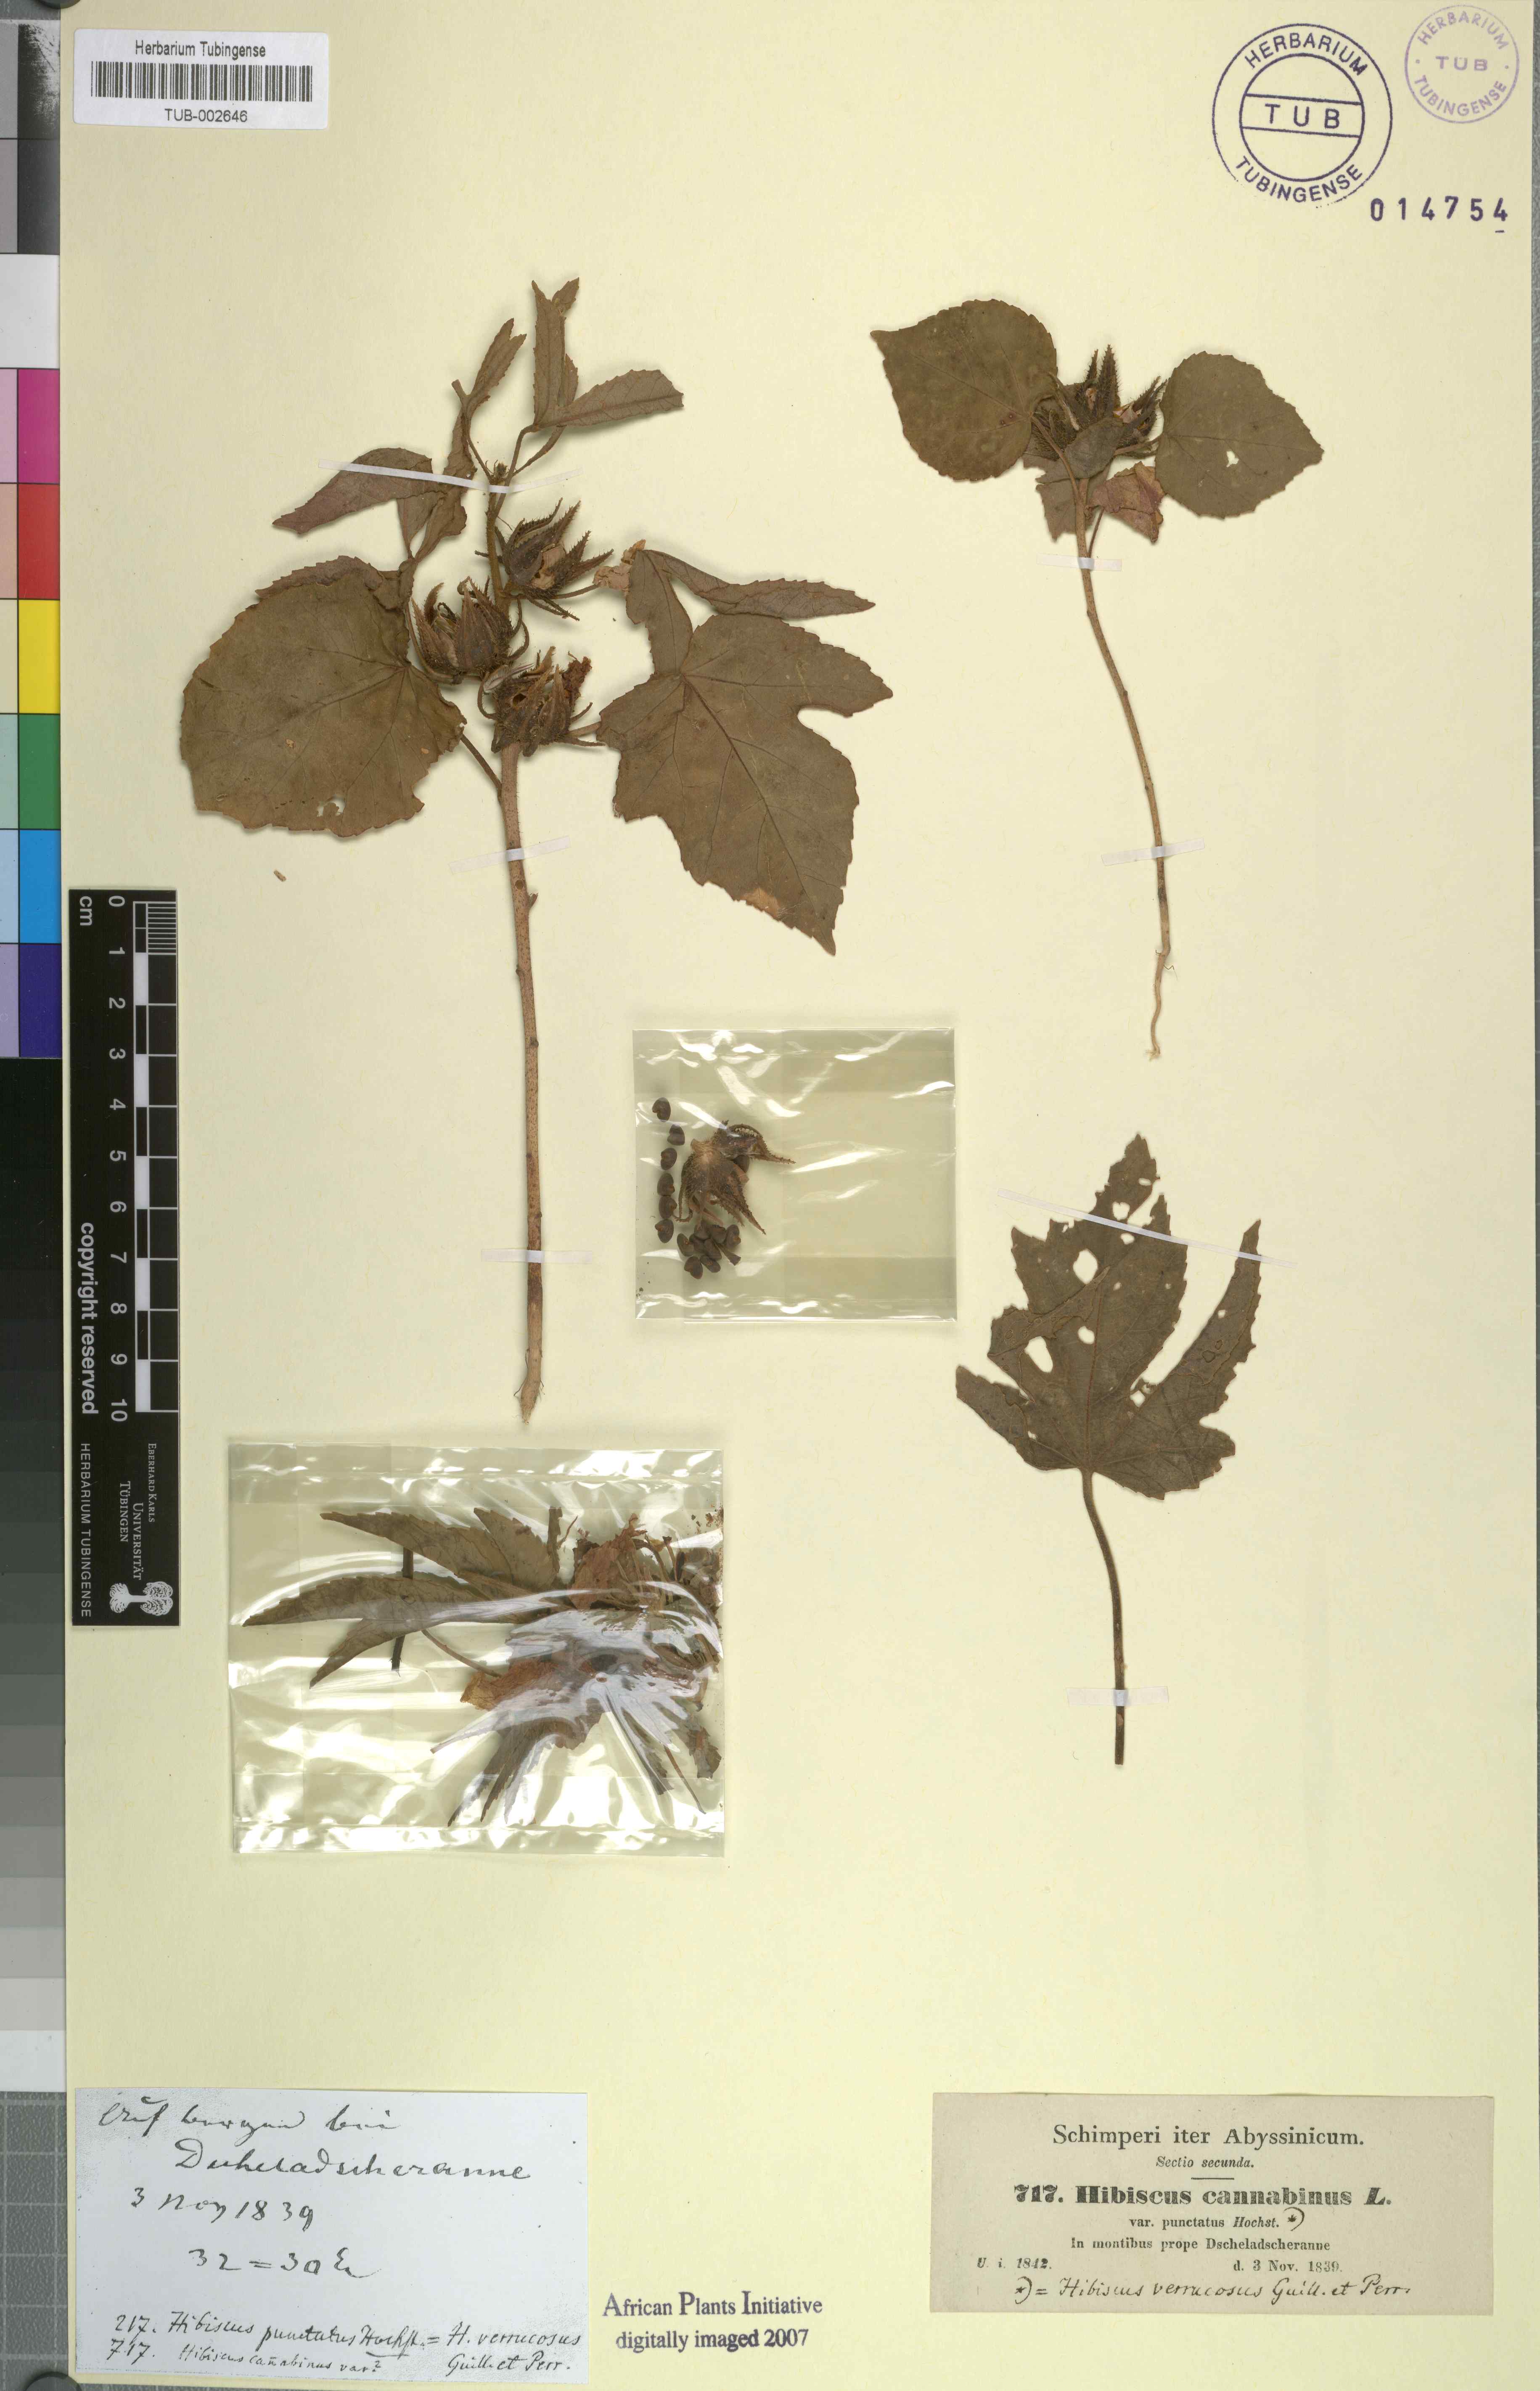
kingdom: Plantae
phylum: Tracheophyta
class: Magnoliopsida
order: Malvales
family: Malvaceae
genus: Hibiscus
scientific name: Hibiscus cannabinus
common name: Brown indianhemp
